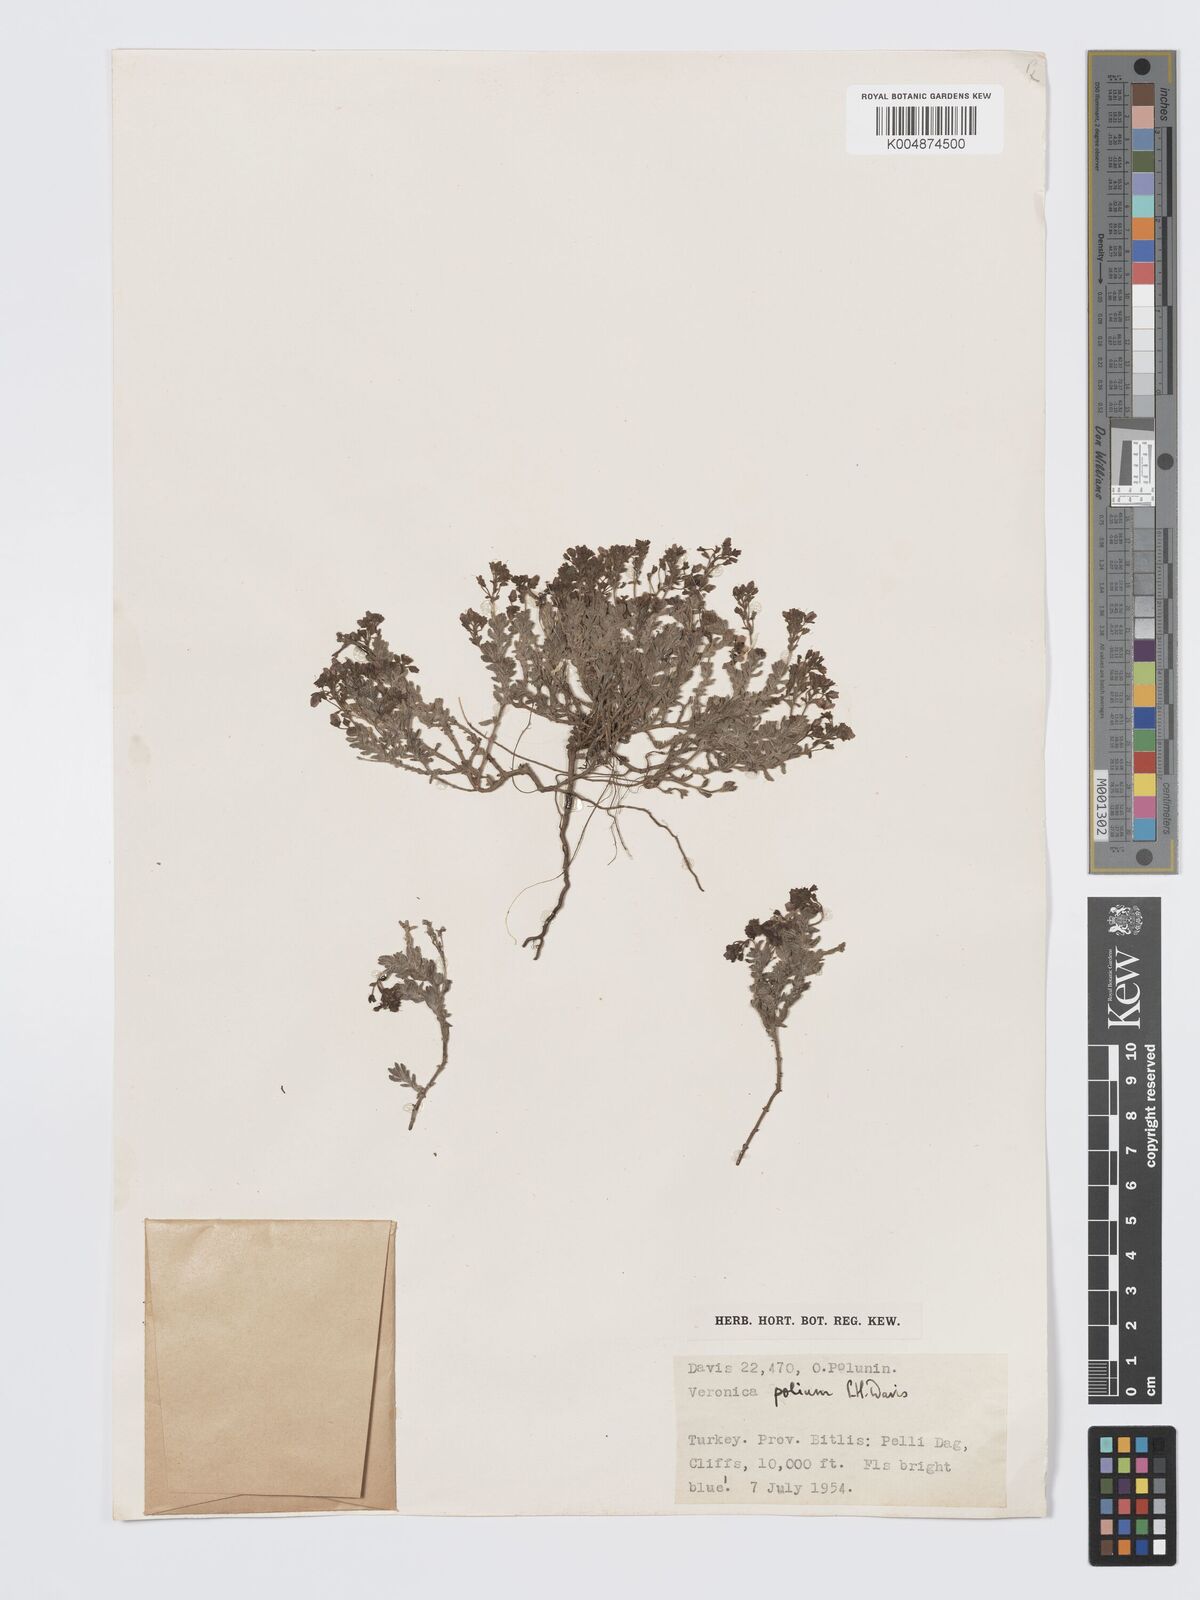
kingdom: Plantae
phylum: Tracheophyta
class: Magnoliopsida
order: Lamiales
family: Plantaginaceae
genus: Veronica
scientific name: Veronica polium
